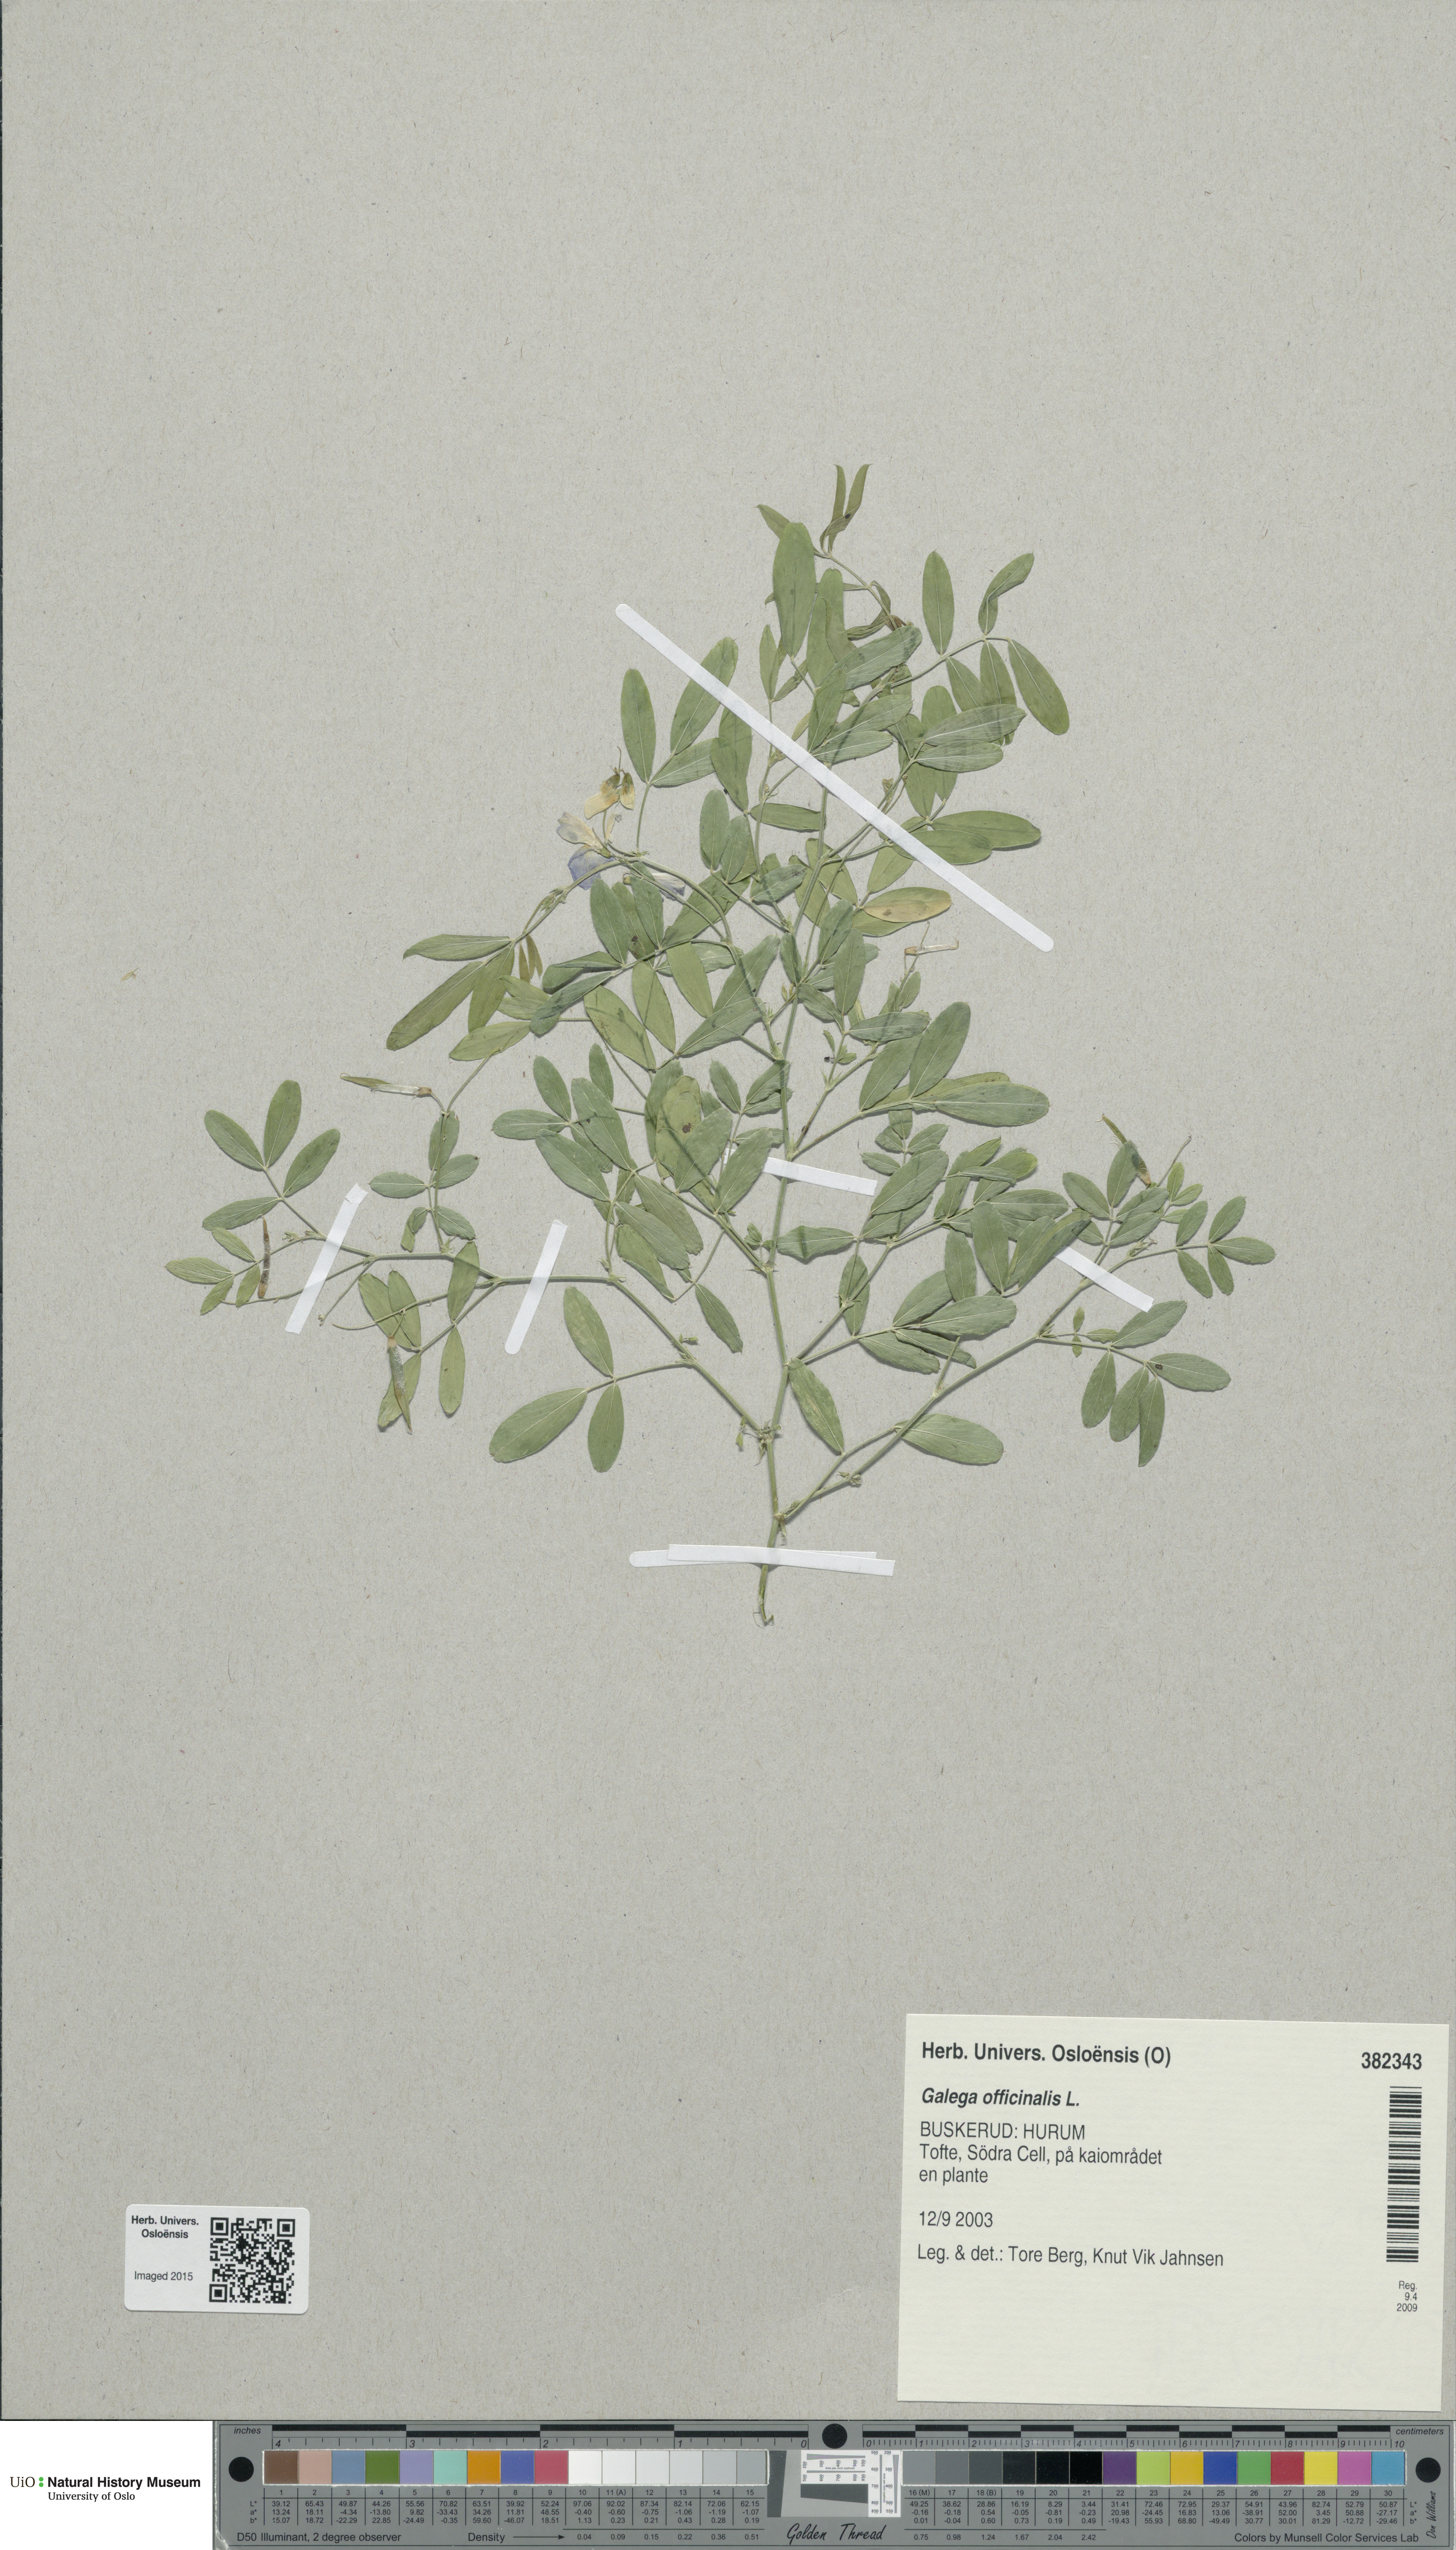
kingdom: Plantae
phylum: Tracheophyta
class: Magnoliopsida
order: Fabales
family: Fabaceae
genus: Galega
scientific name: Galega officinalis
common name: Goat's-rue
